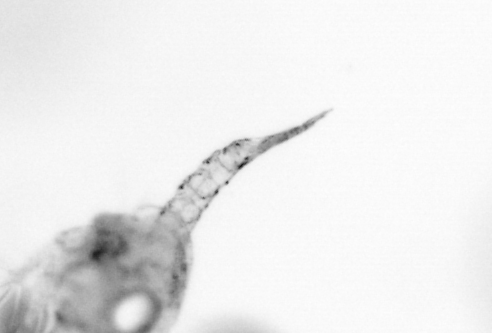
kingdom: Animalia
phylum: Arthropoda
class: Copepoda
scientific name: Copepoda
